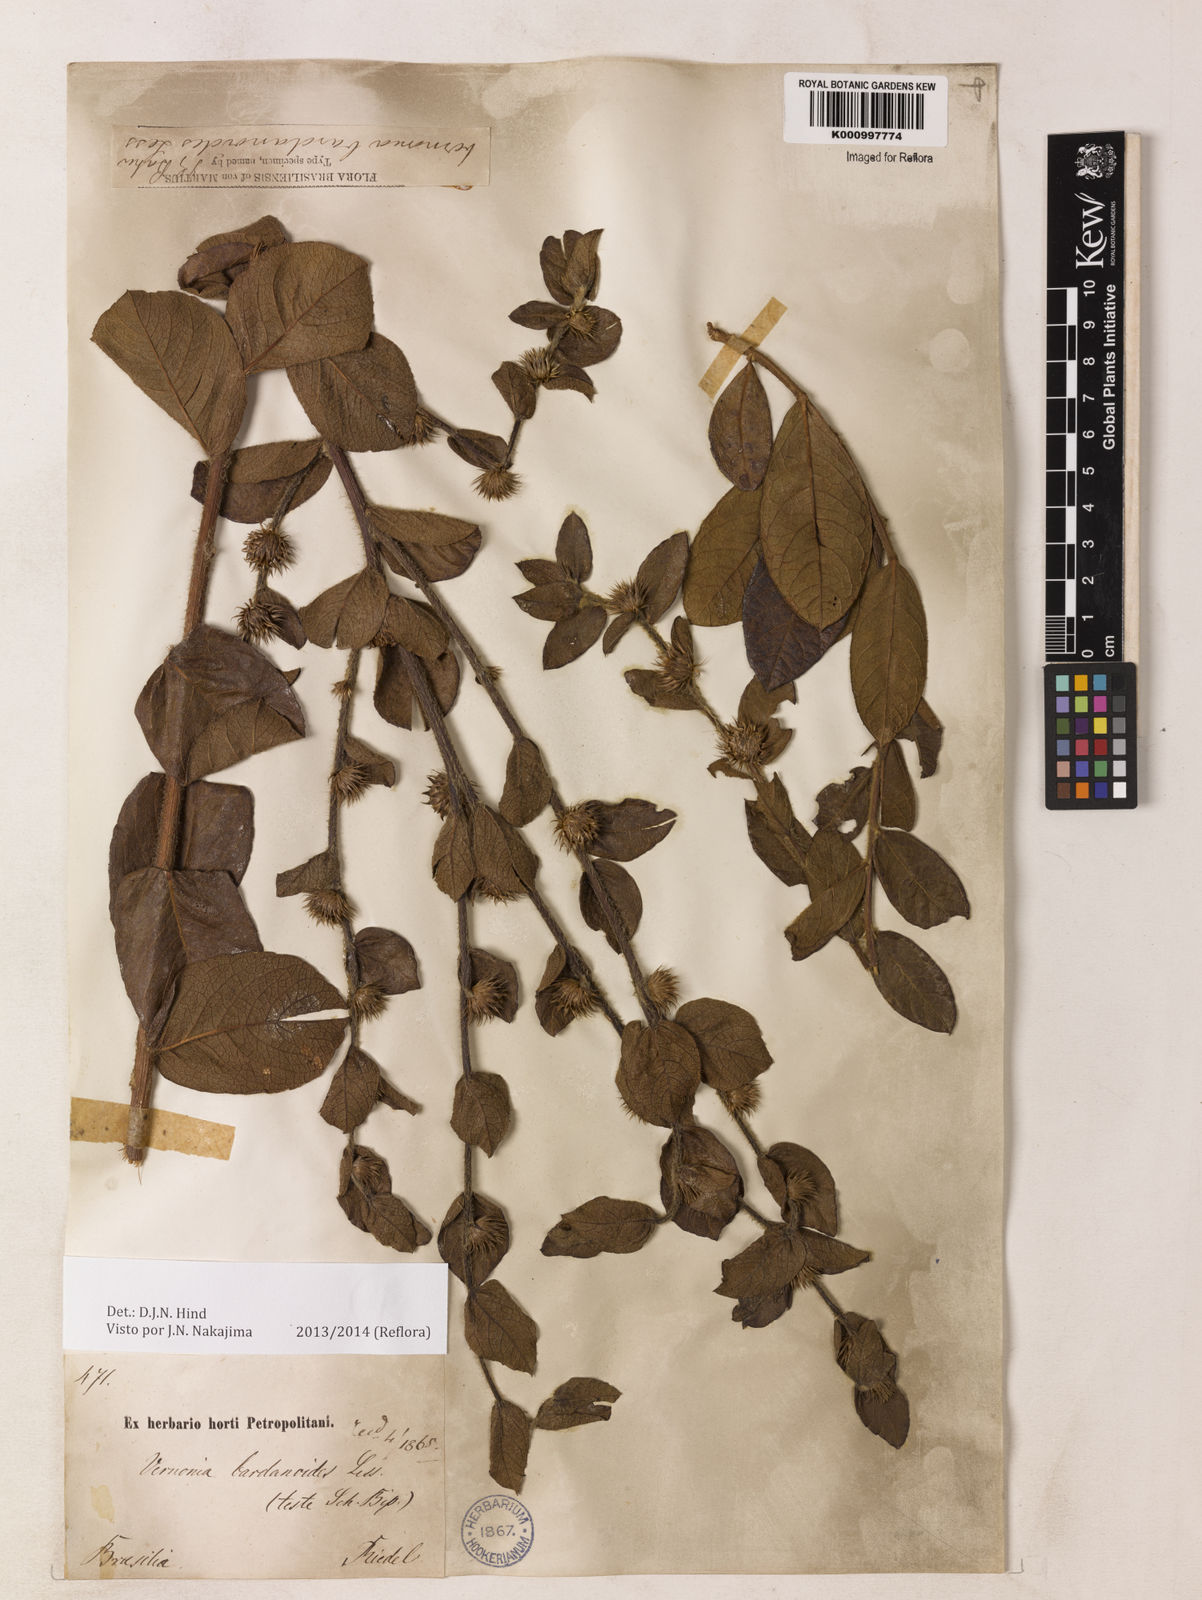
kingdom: Plantae
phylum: Tracheophyta
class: Magnoliopsida
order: Asterales
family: Asteraceae
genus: Lessingianthus
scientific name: Lessingianthus bardanioides
